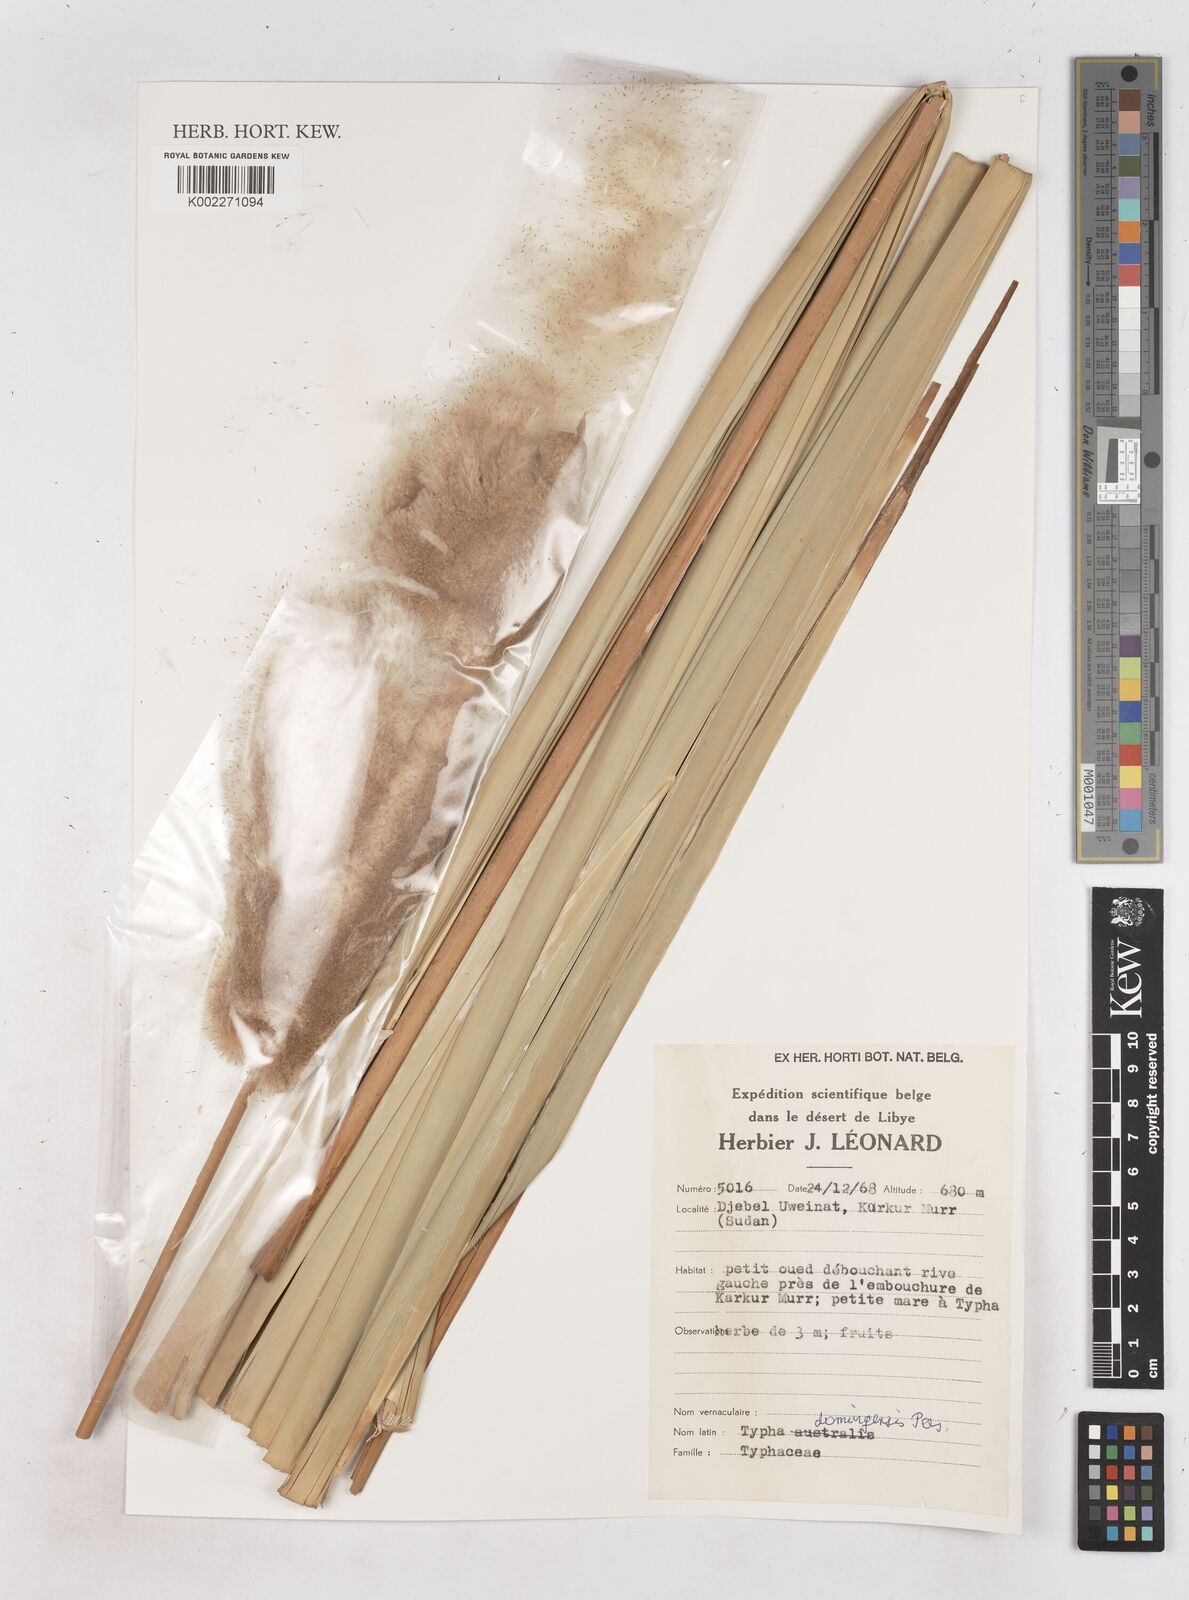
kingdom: Plantae
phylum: Tracheophyta
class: Liliopsida
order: Poales
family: Typhaceae
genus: Typha
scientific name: Typha domingensis
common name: Southern cattail
